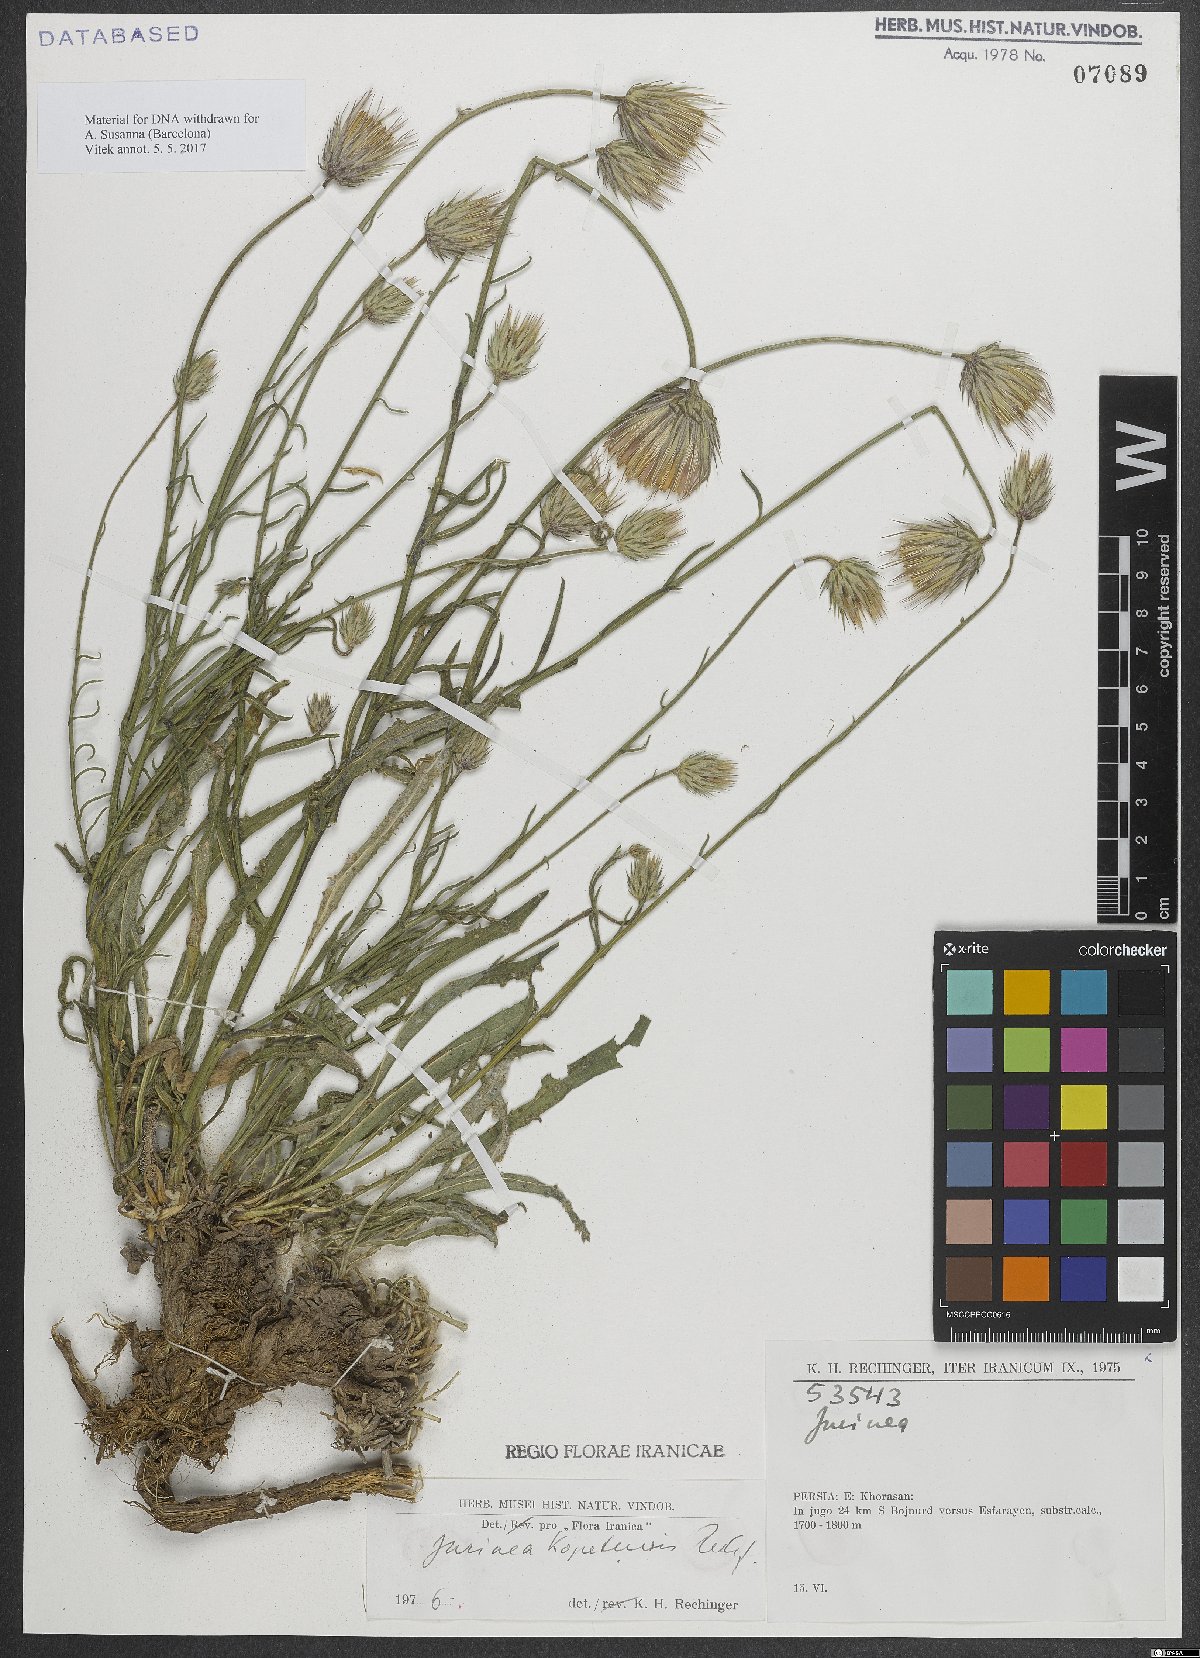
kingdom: Plantae
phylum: Tracheophyta
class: Magnoliopsida
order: Asterales
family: Asteraceae
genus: Jurinea
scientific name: Jurinea kopetensis
